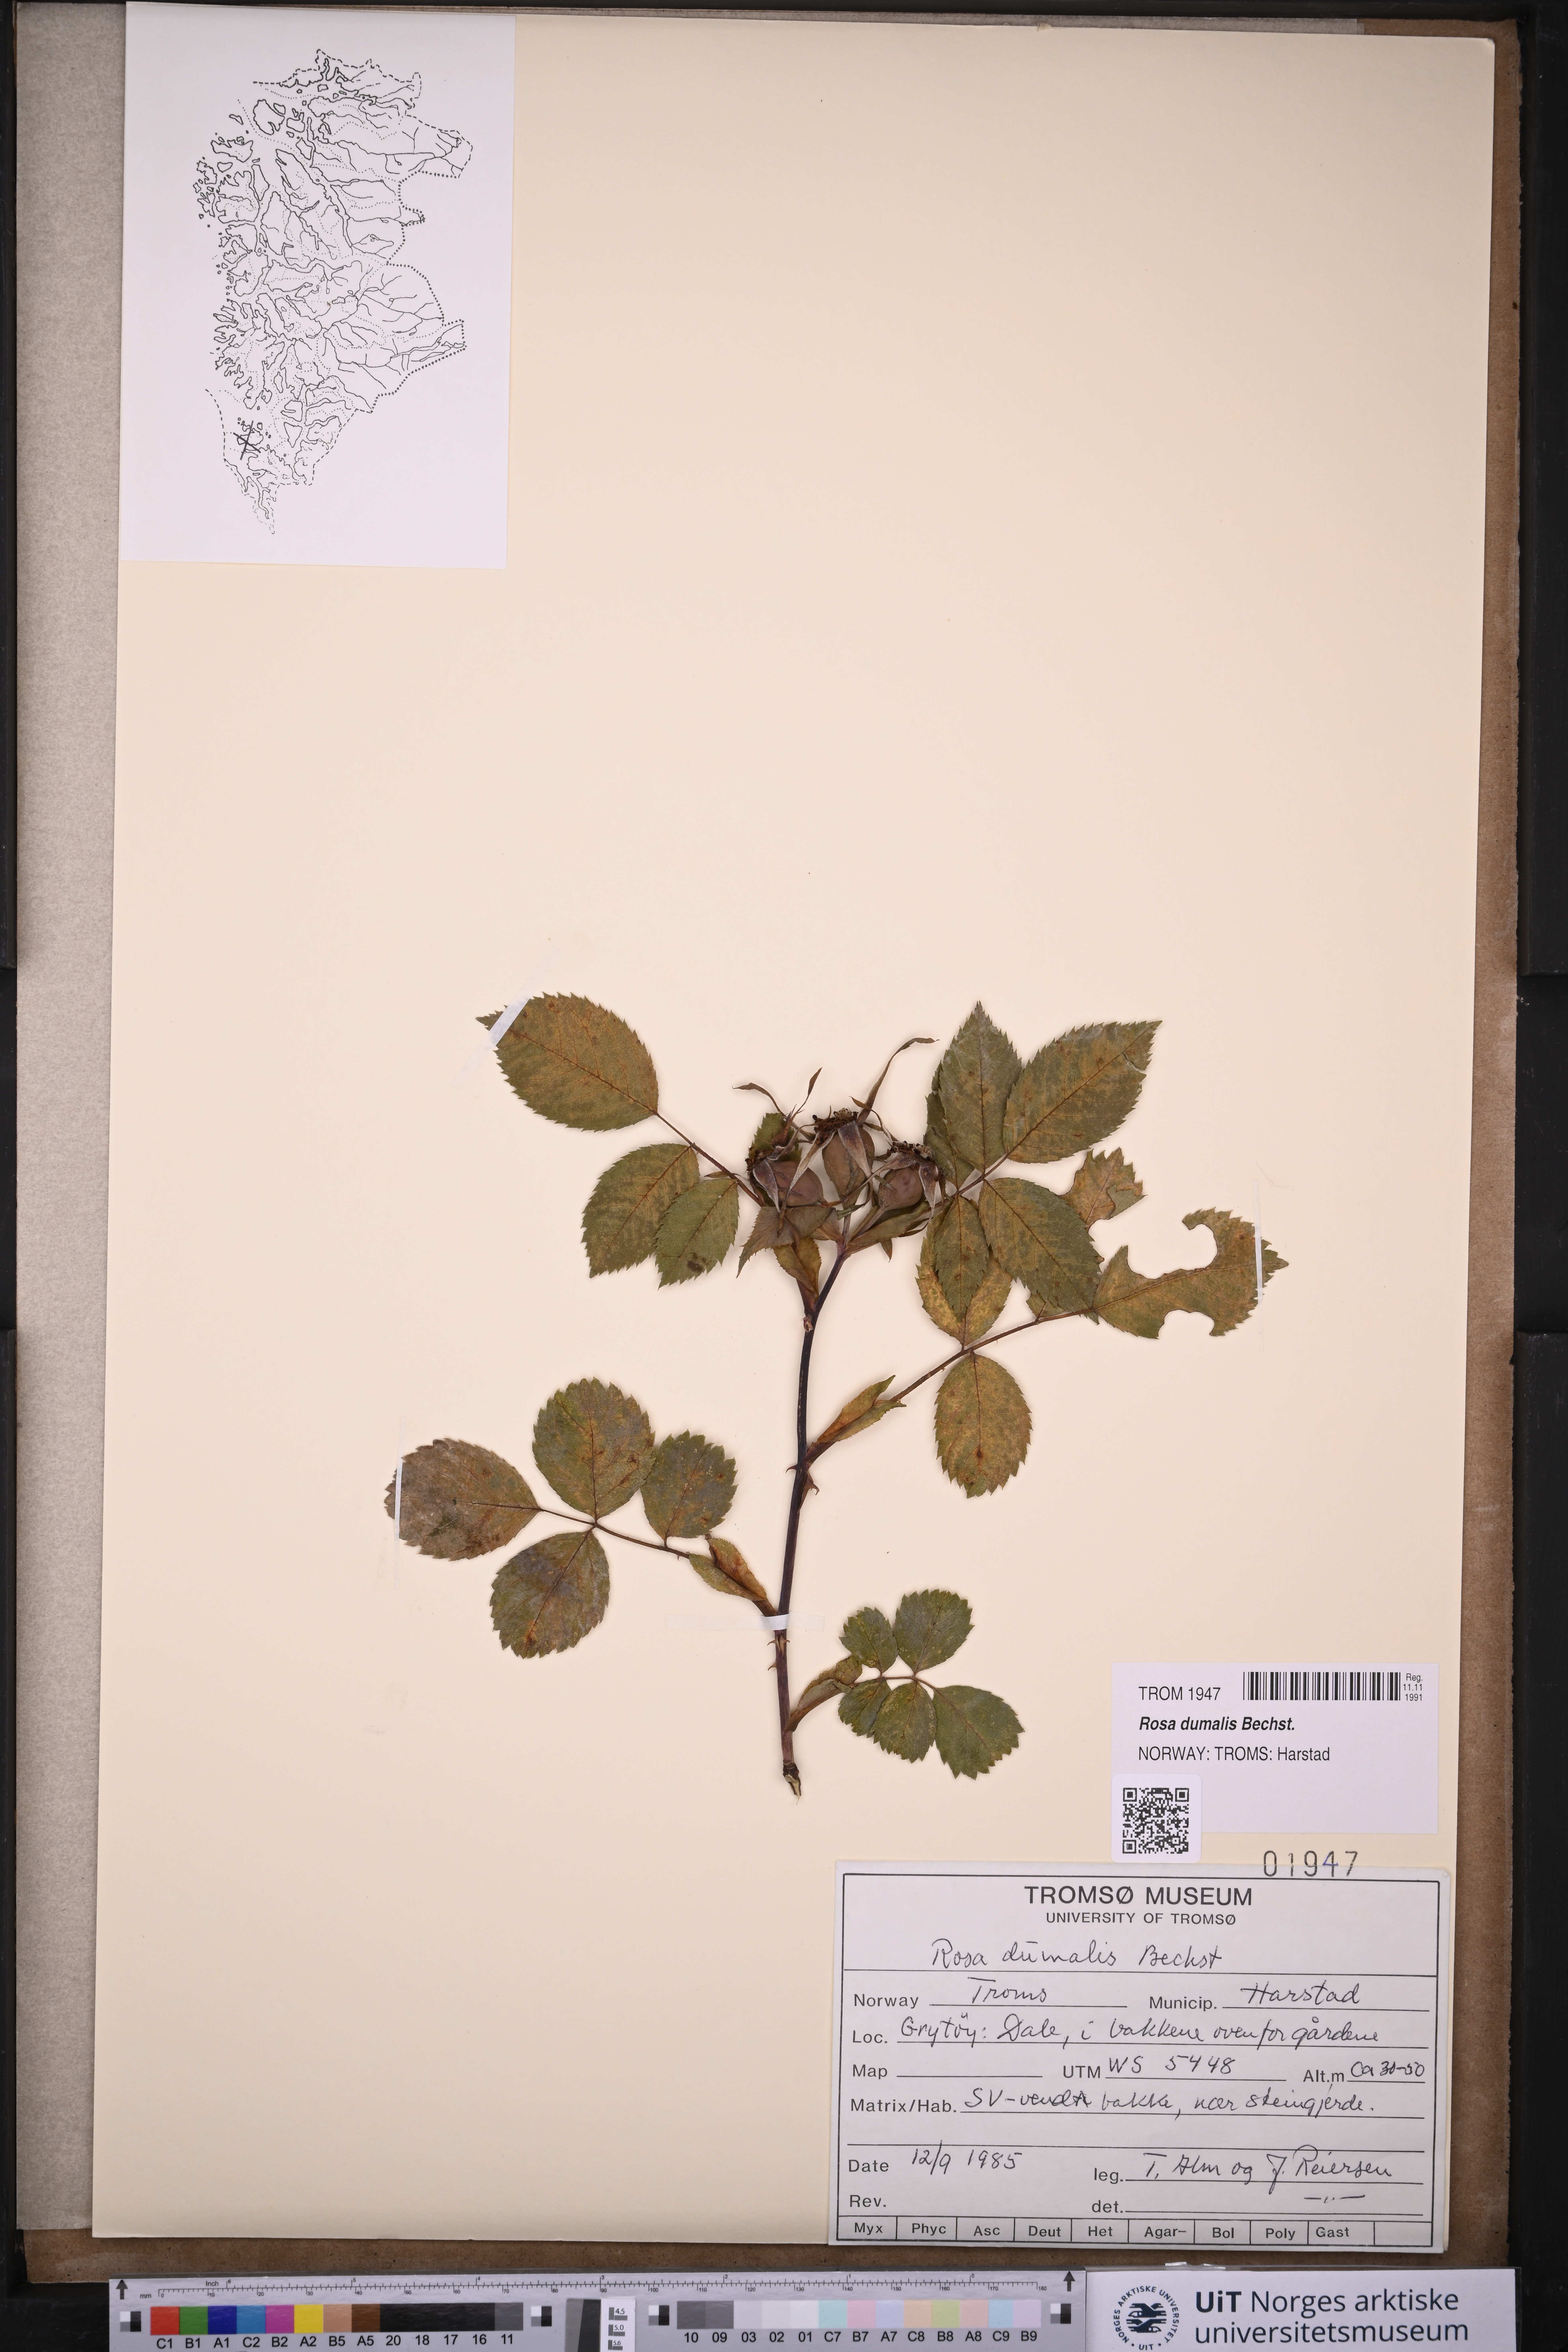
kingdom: Plantae
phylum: Tracheophyta
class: Magnoliopsida
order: Rosales
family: Rosaceae
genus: Rosa
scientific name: Rosa dumalis
